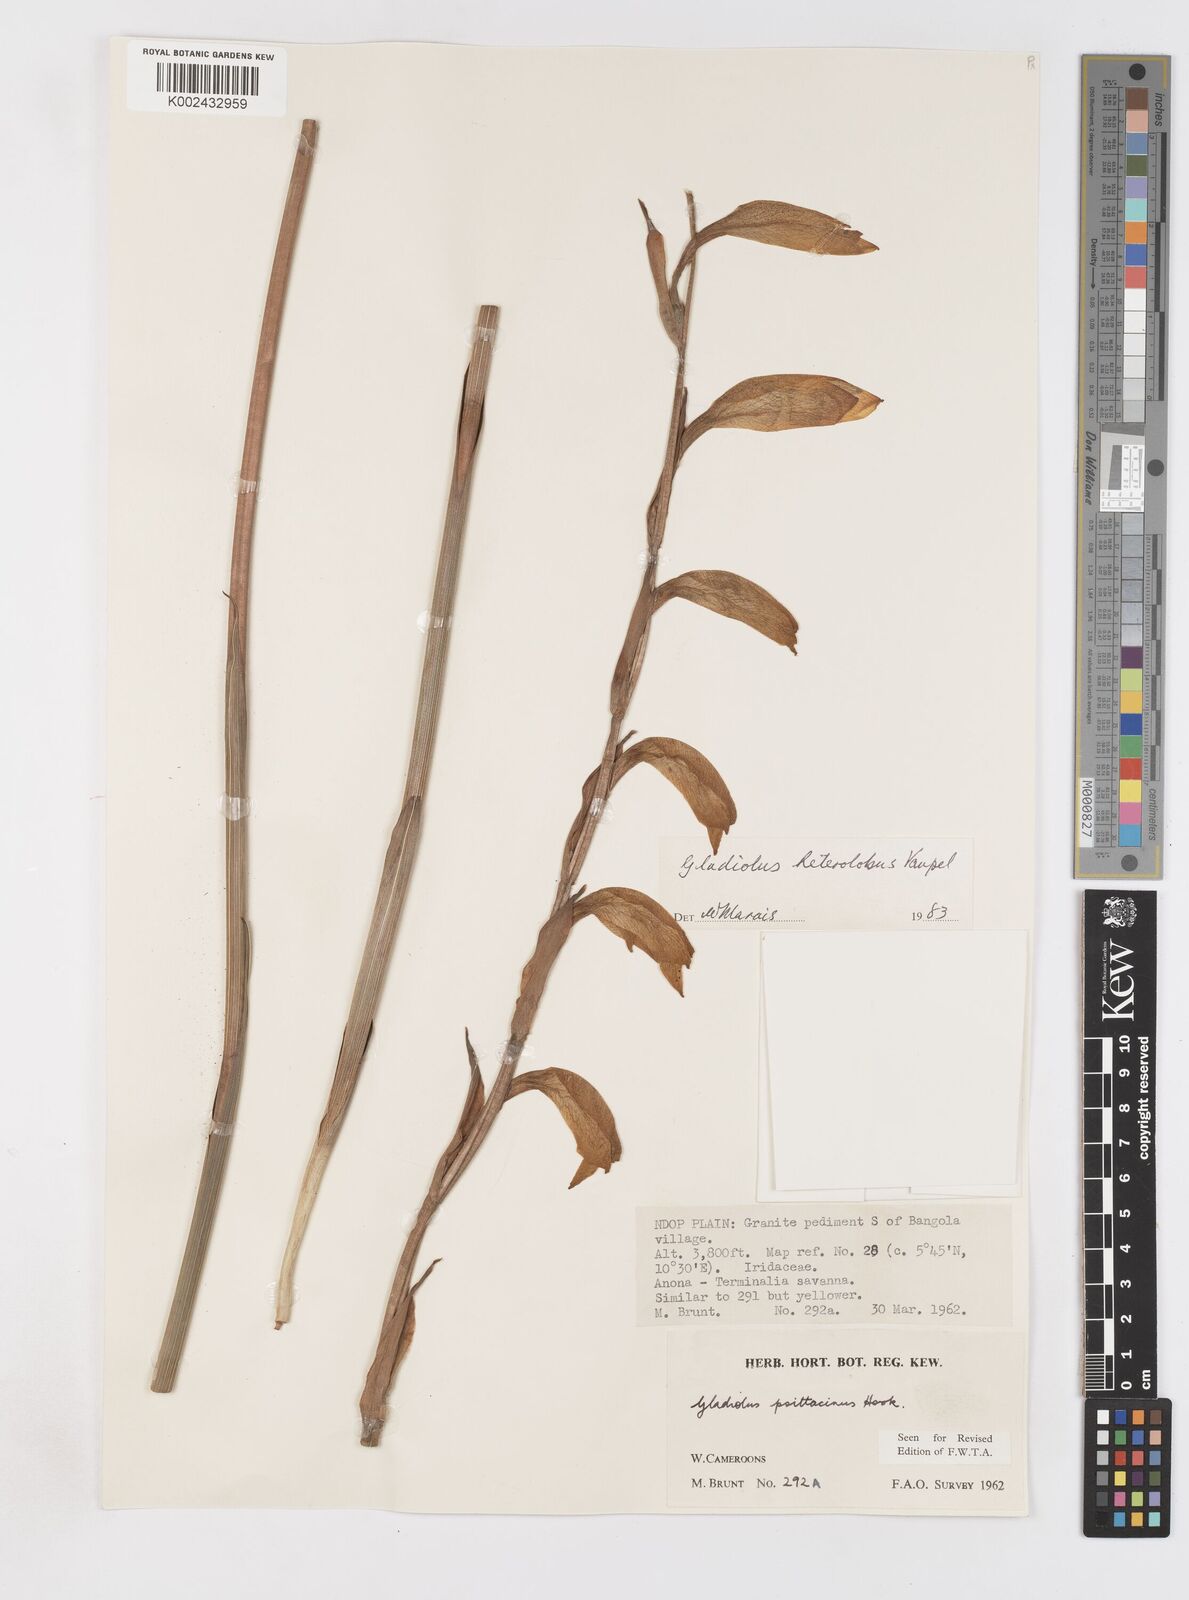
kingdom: Plantae
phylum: Tracheophyta
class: Liliopsida
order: Asparagales
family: Iridaceae
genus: Gladiolus
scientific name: Gladiolus roseolus
